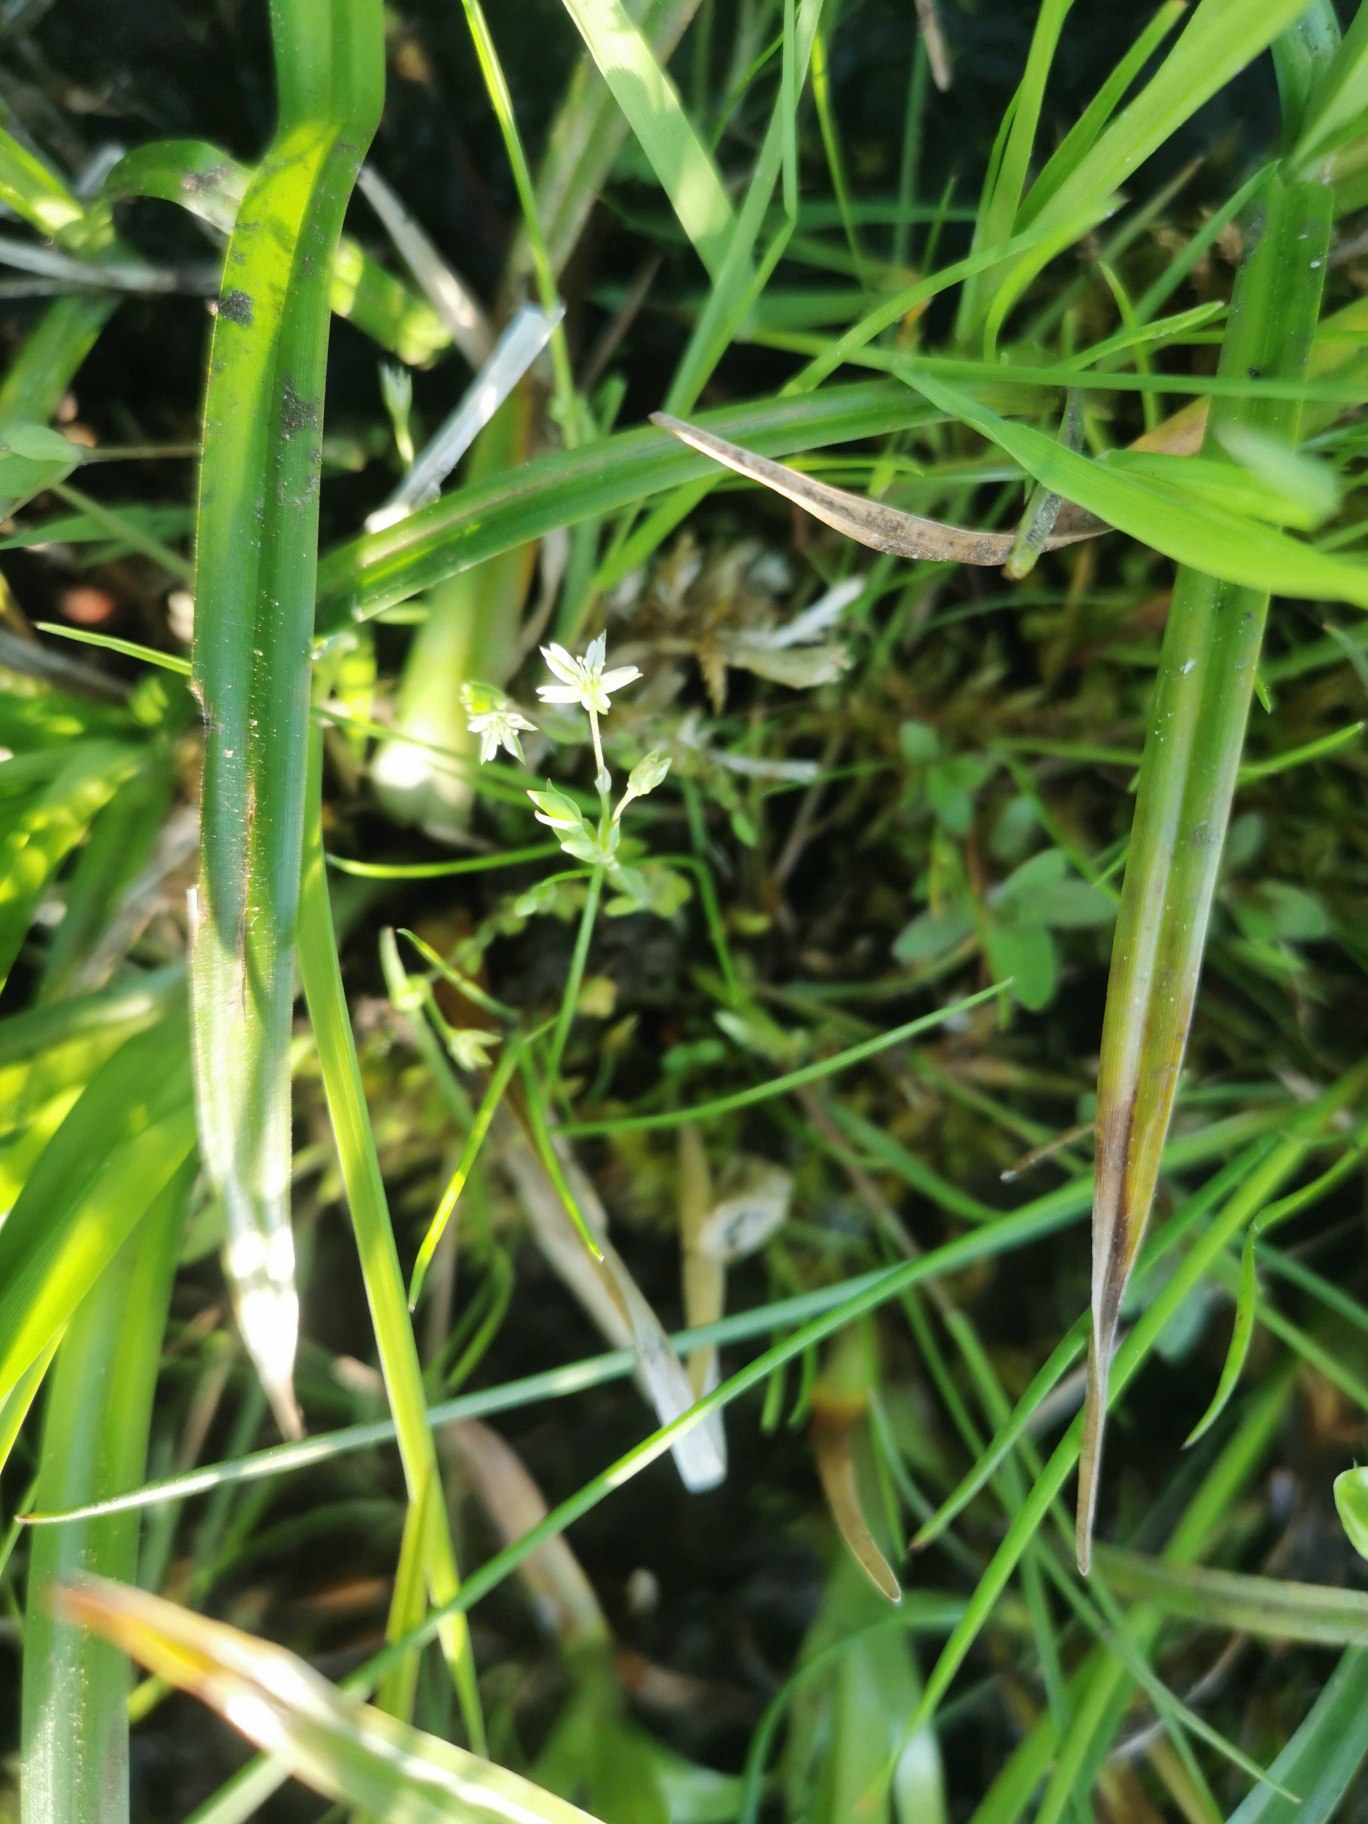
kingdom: Plantae
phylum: Tracheophyta
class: Magnoliopsida
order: Caryophyllales
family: Caryophyllaceae
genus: Stellaria
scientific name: Stellaria alsine
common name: Sump-fladstjerne
